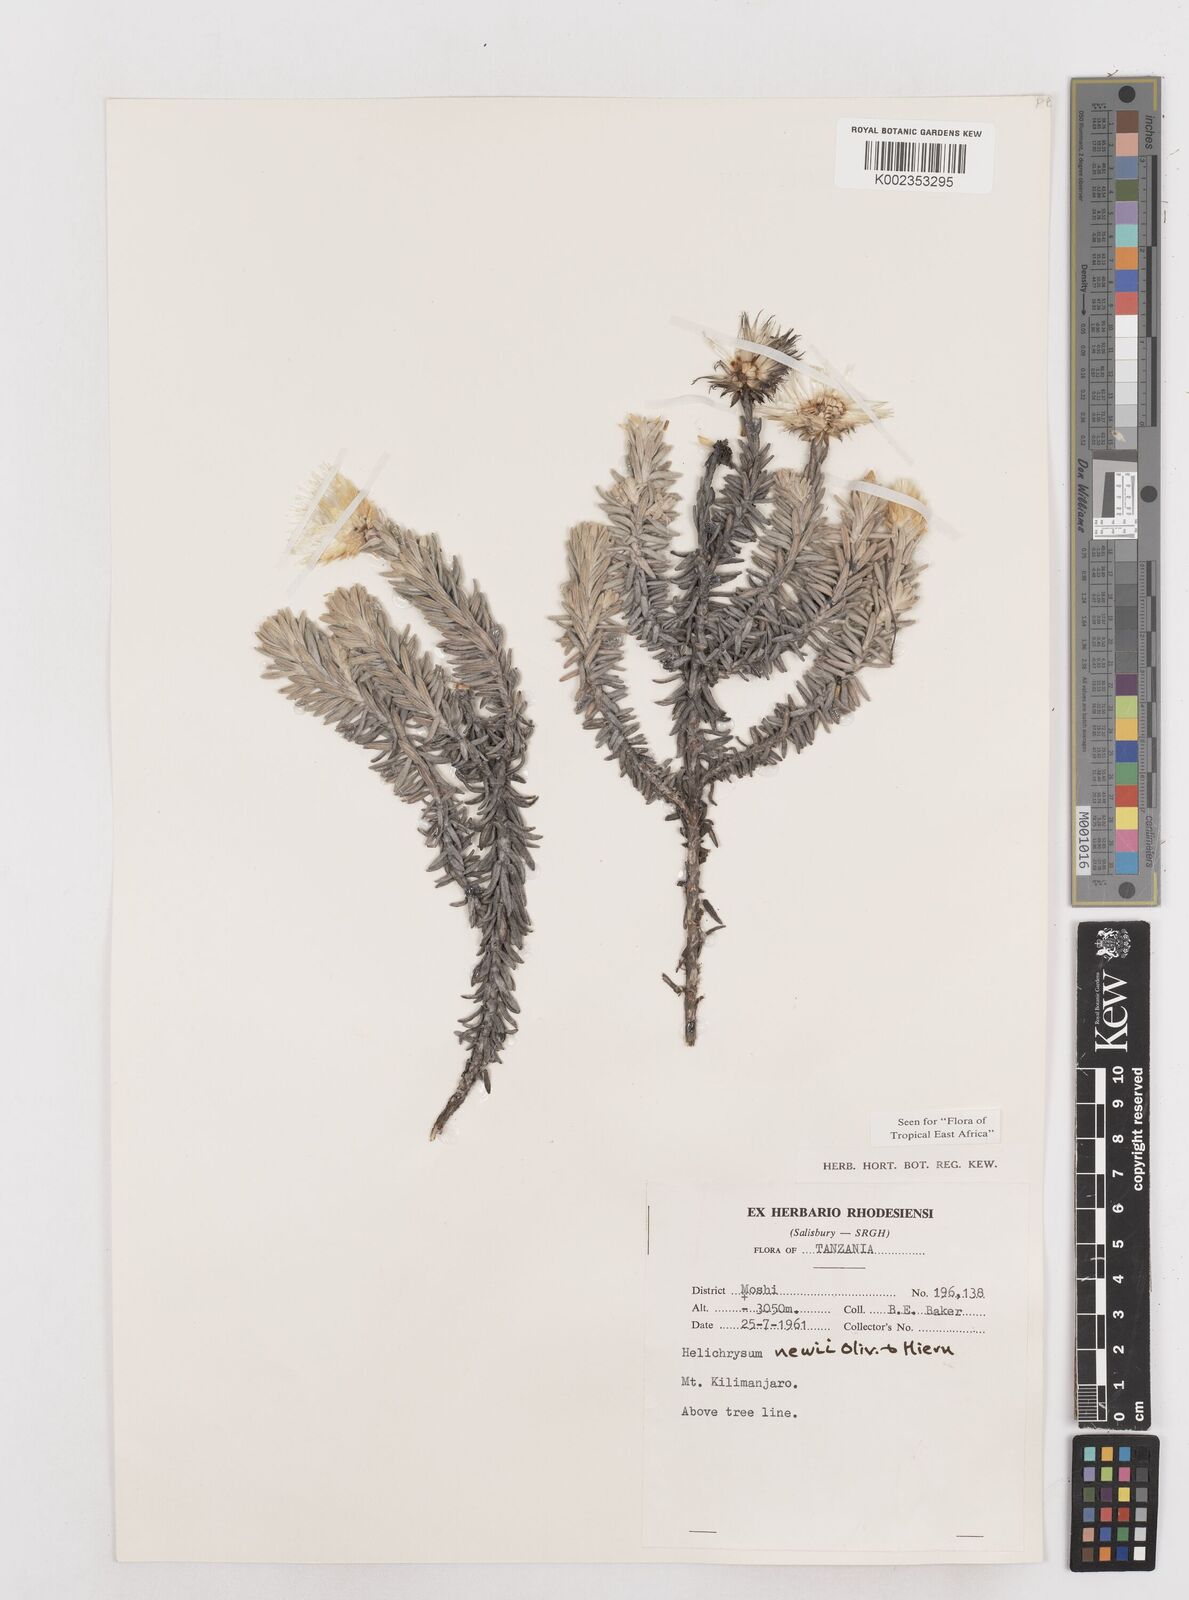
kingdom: Plantae
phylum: Tracheophyta
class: Magnoliopsida
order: Asterales
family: Asteraceae
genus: Helichrysum
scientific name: Helichrysum newii
